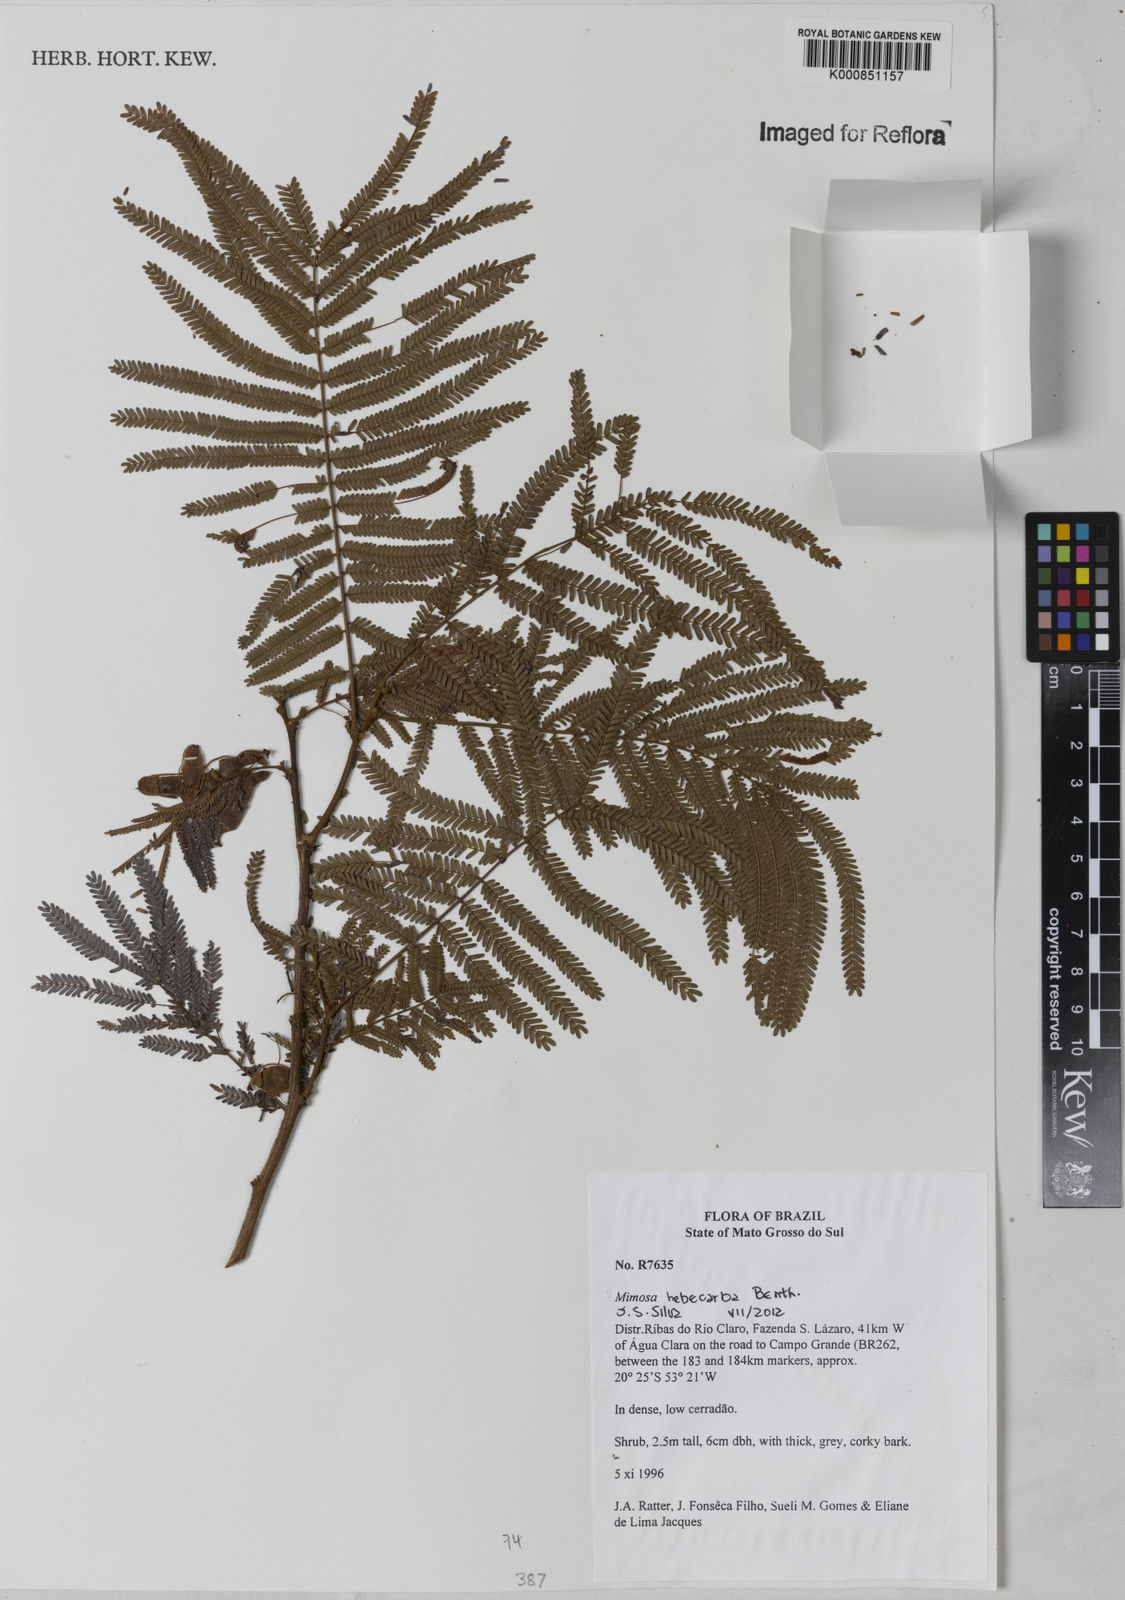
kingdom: Plantae
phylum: Tracheophyta
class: Magnoliopsida
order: Fabales
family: Fabaceae
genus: Mimosa
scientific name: Mimosa hebecarpa
